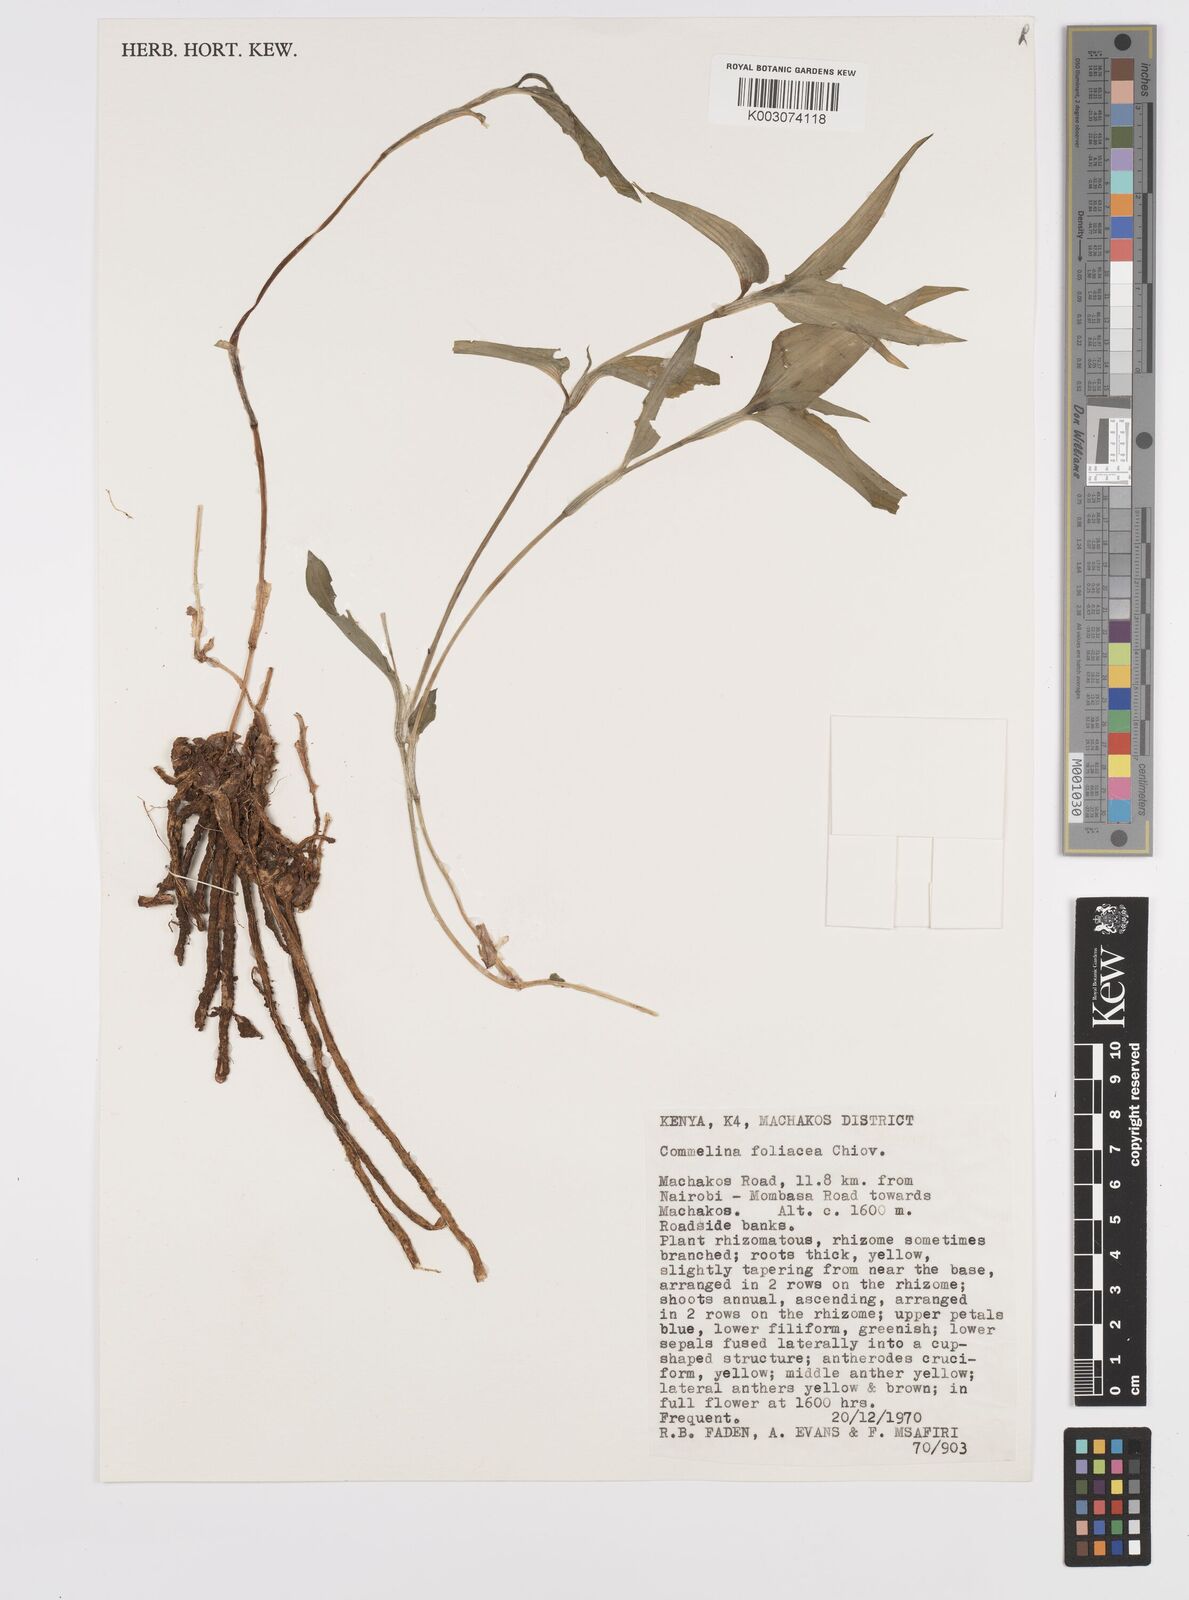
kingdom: Plantae
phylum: Tracheophyta
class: Liliopsida
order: Commelinales
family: Commelinaceae
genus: Commelina
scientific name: Commelina foliacea
